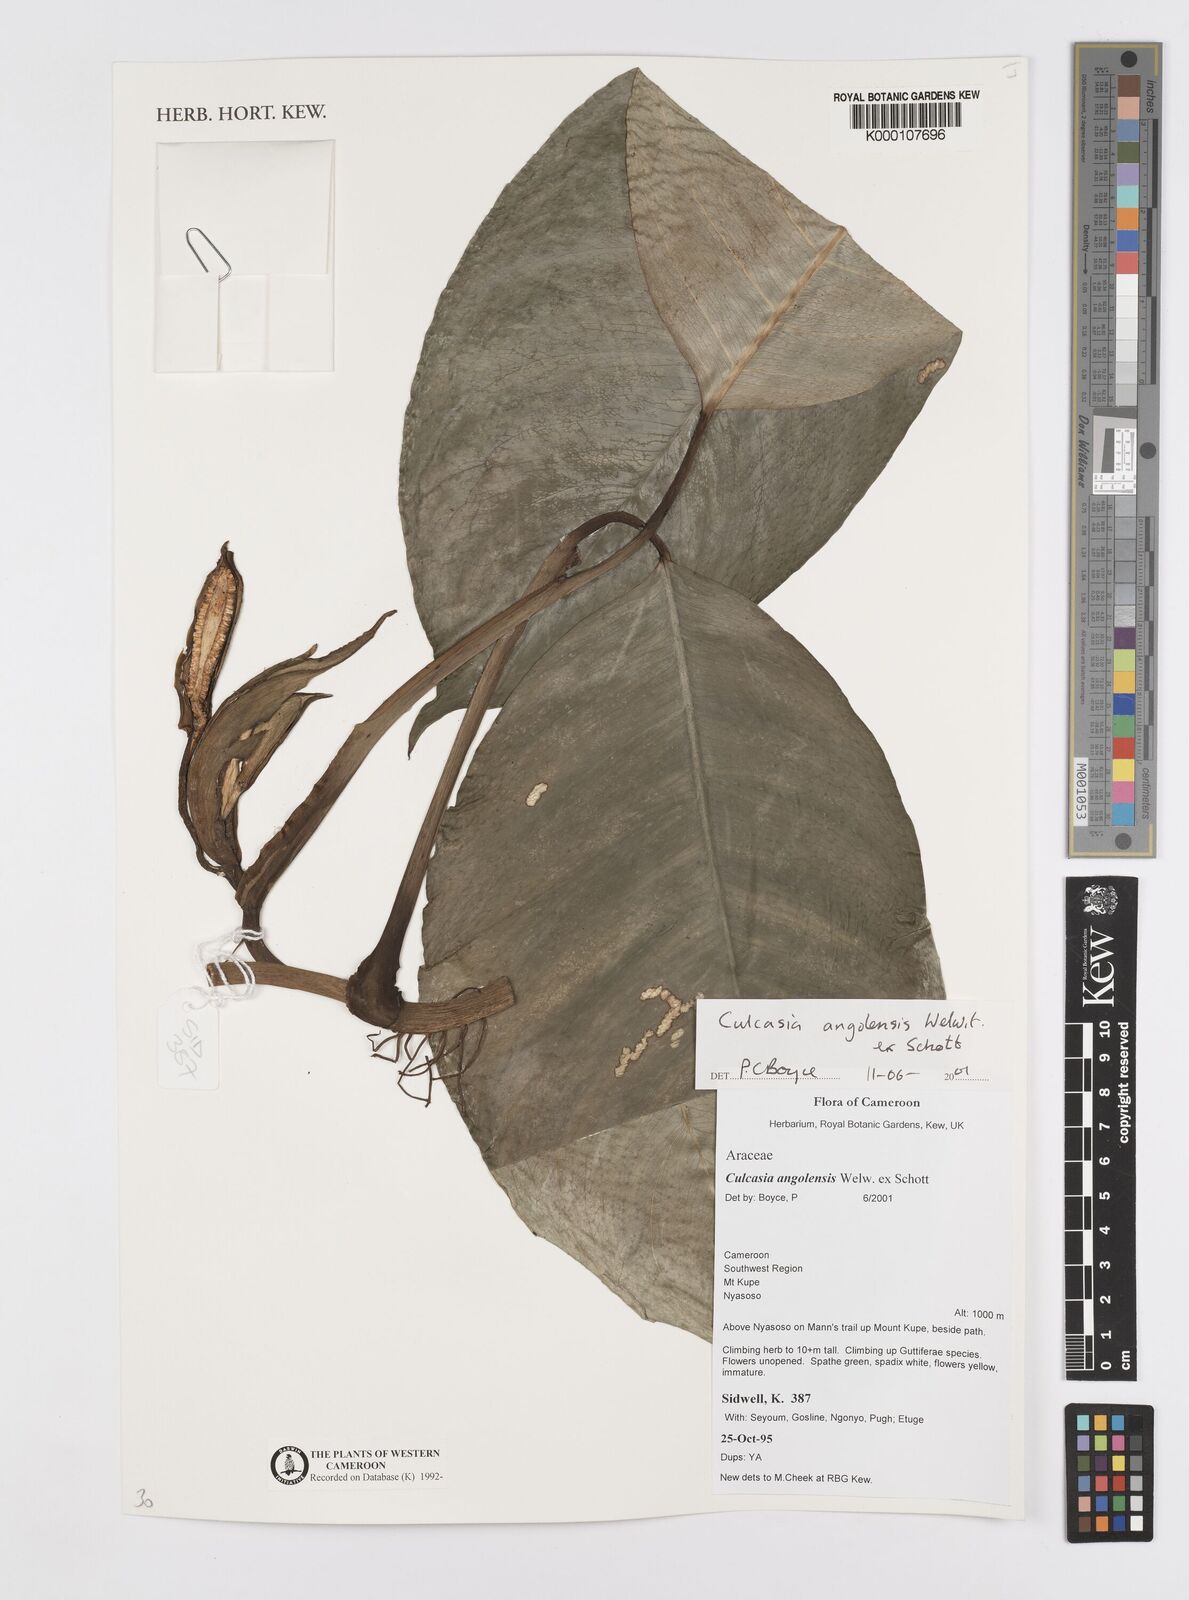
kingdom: Plantae
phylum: Tracheophyta
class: Liliopsida
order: Alismatales
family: Araceae
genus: Culcasia
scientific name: Culcasia angolensis
